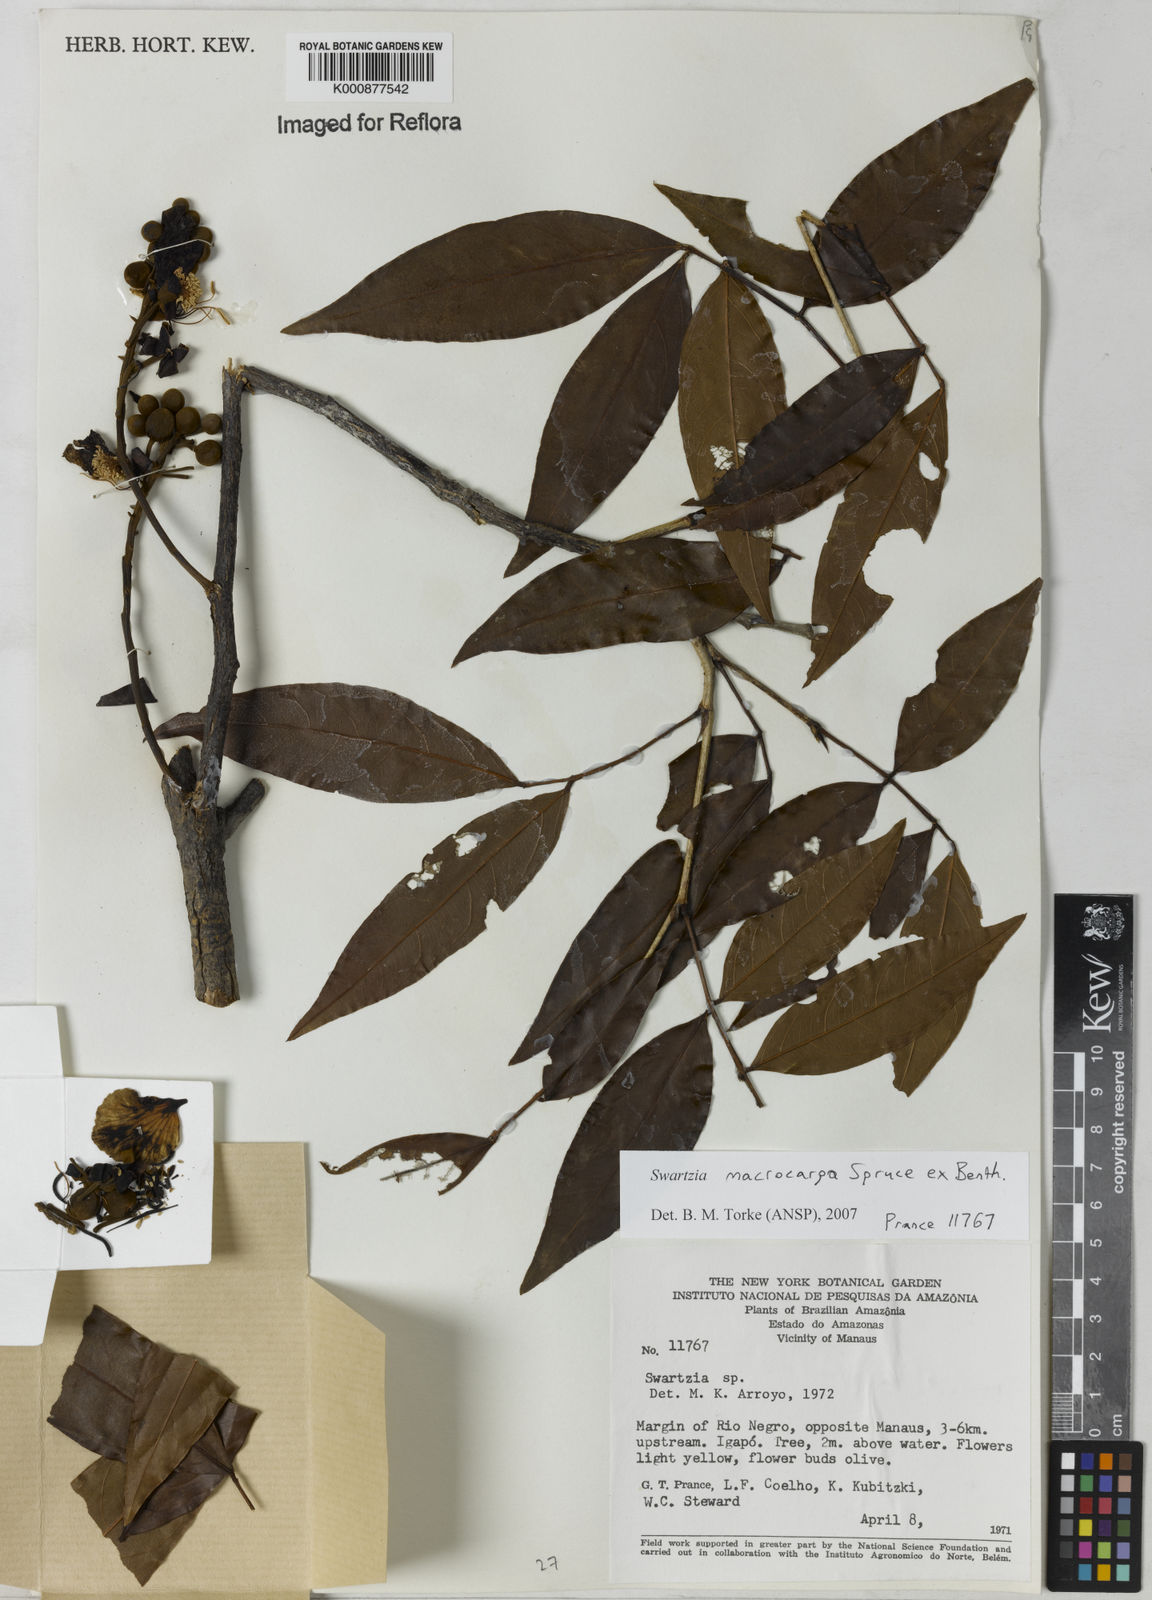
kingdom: Plantae
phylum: Tracheophyta
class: Magnoliopsida
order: Fabales
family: Fabaceae
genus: Swartzia
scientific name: Swartzia macrocarpa
